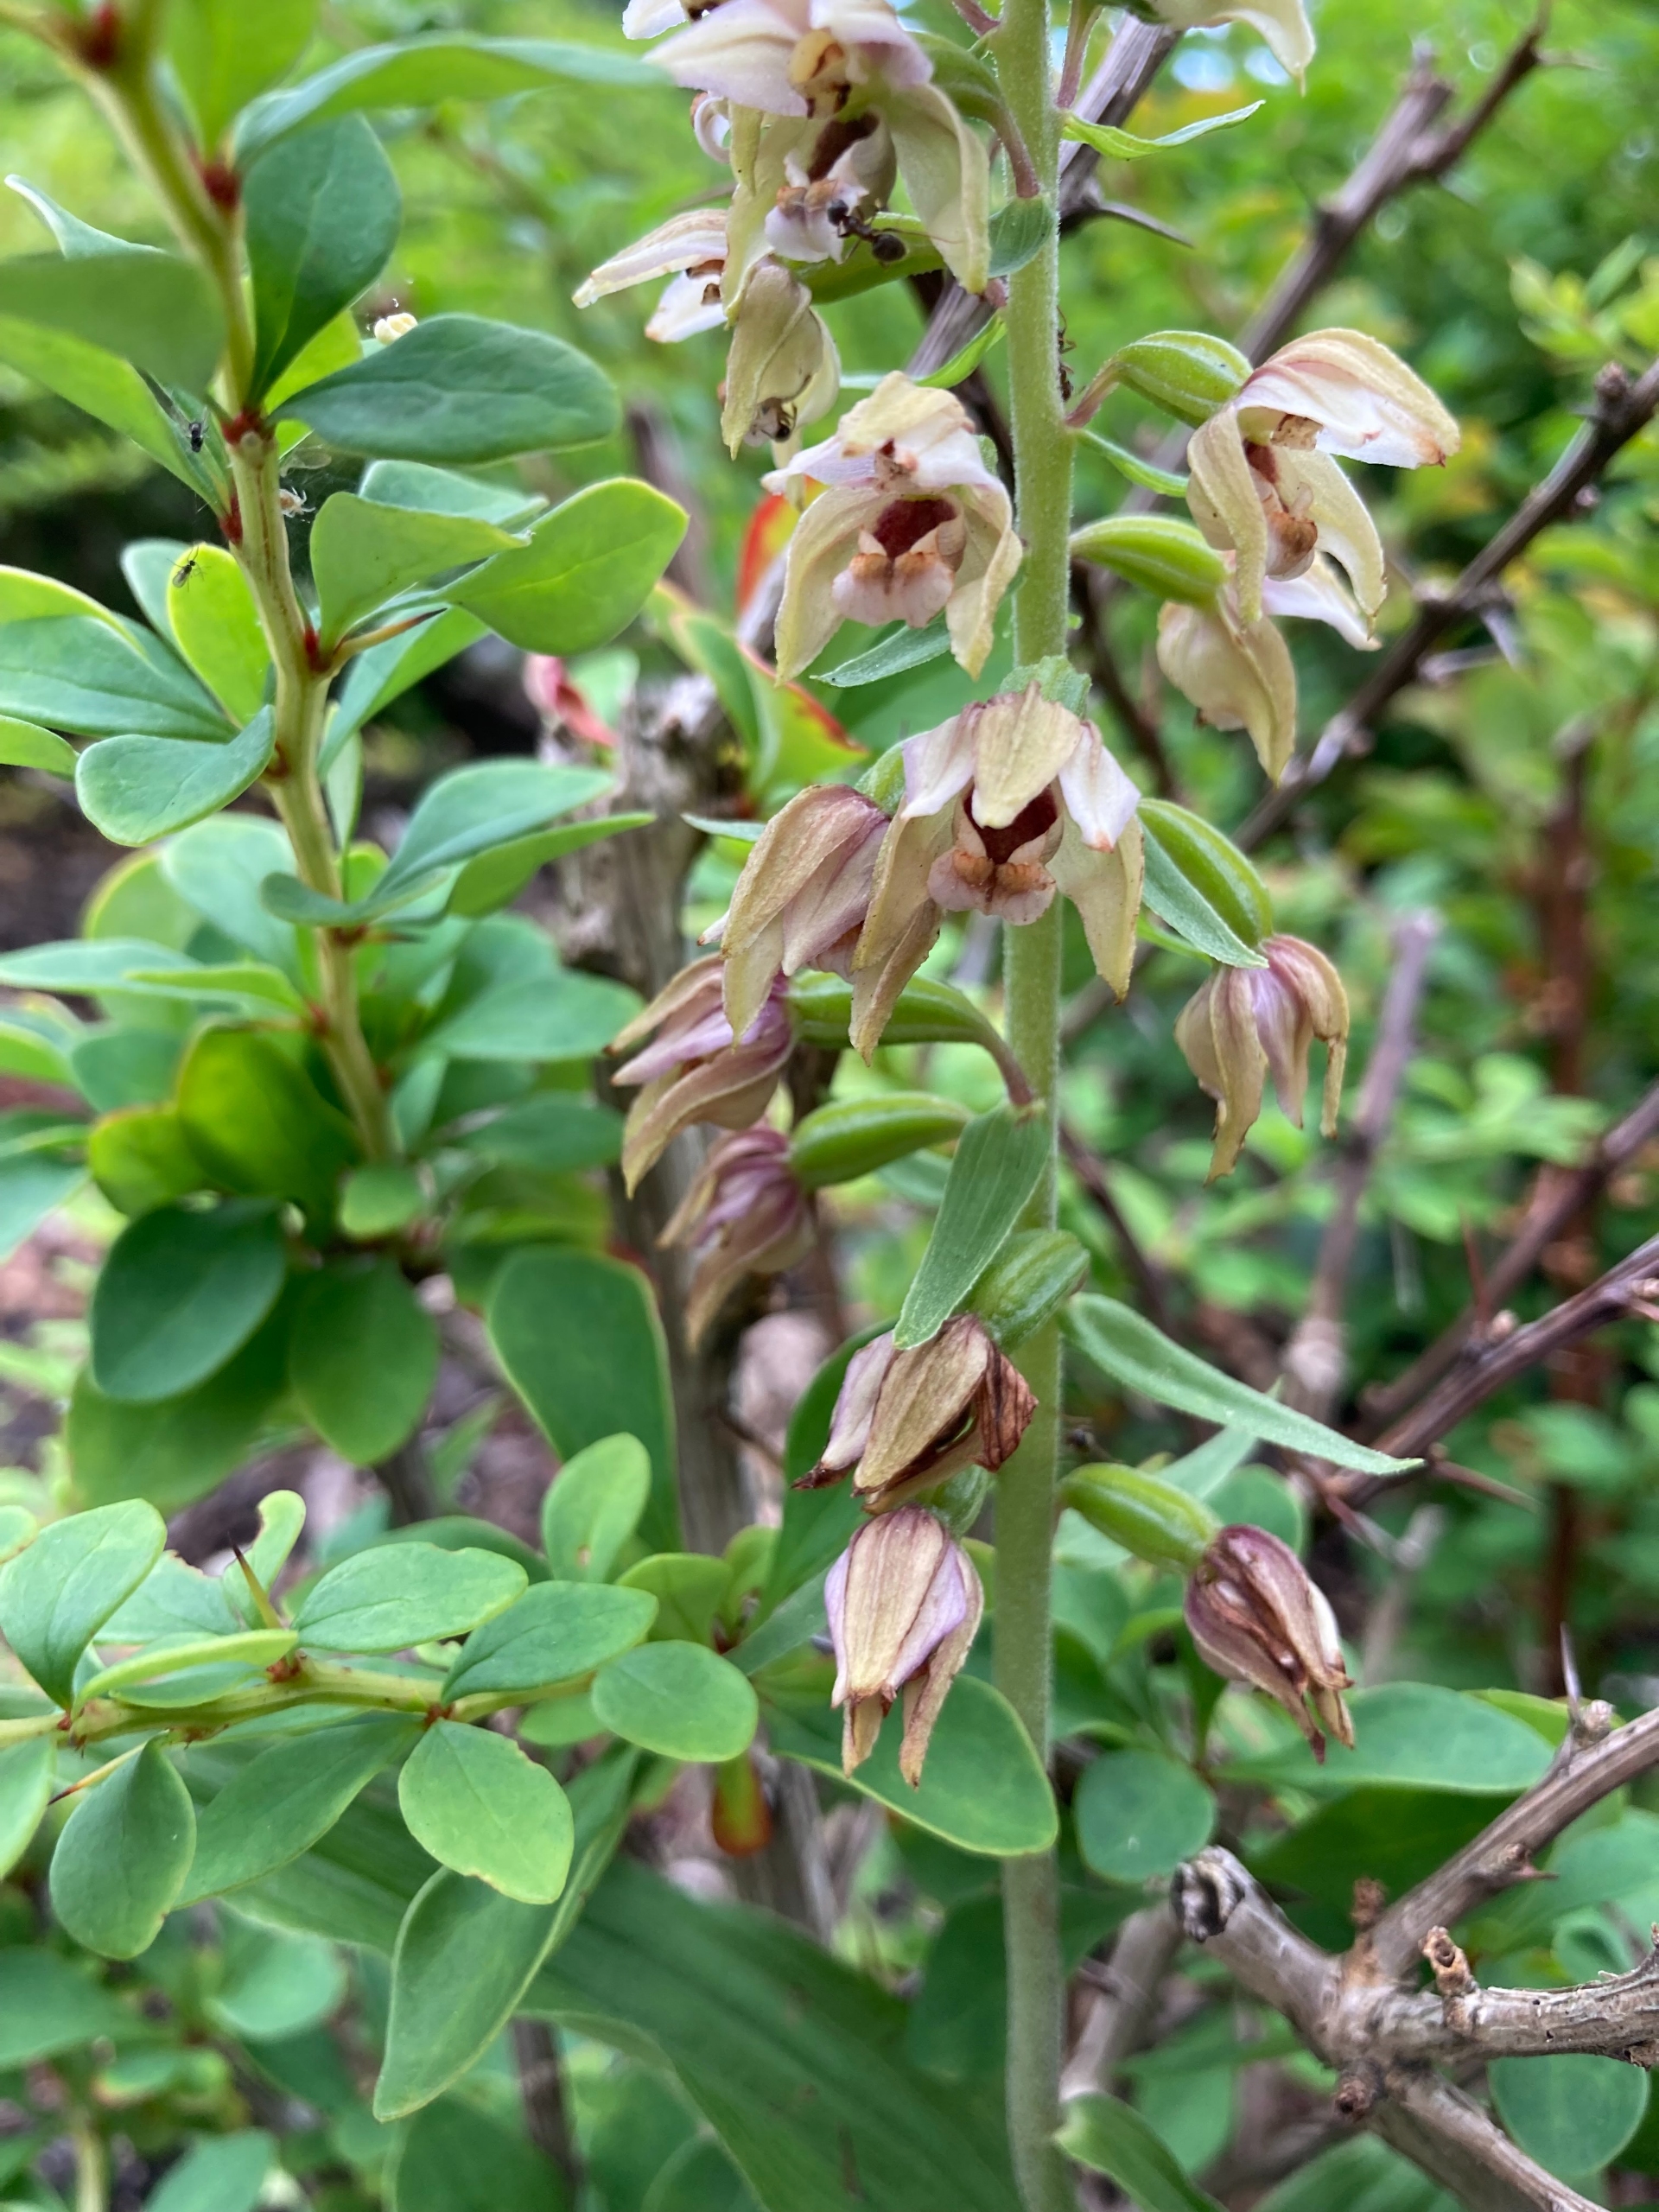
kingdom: Plantae
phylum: Tracheophyta
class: Liliopsida
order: Asparagales
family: Orchidaceae
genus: Epipactis
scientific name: Epipactis helleborine
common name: Skov-hullæbe (underart)
